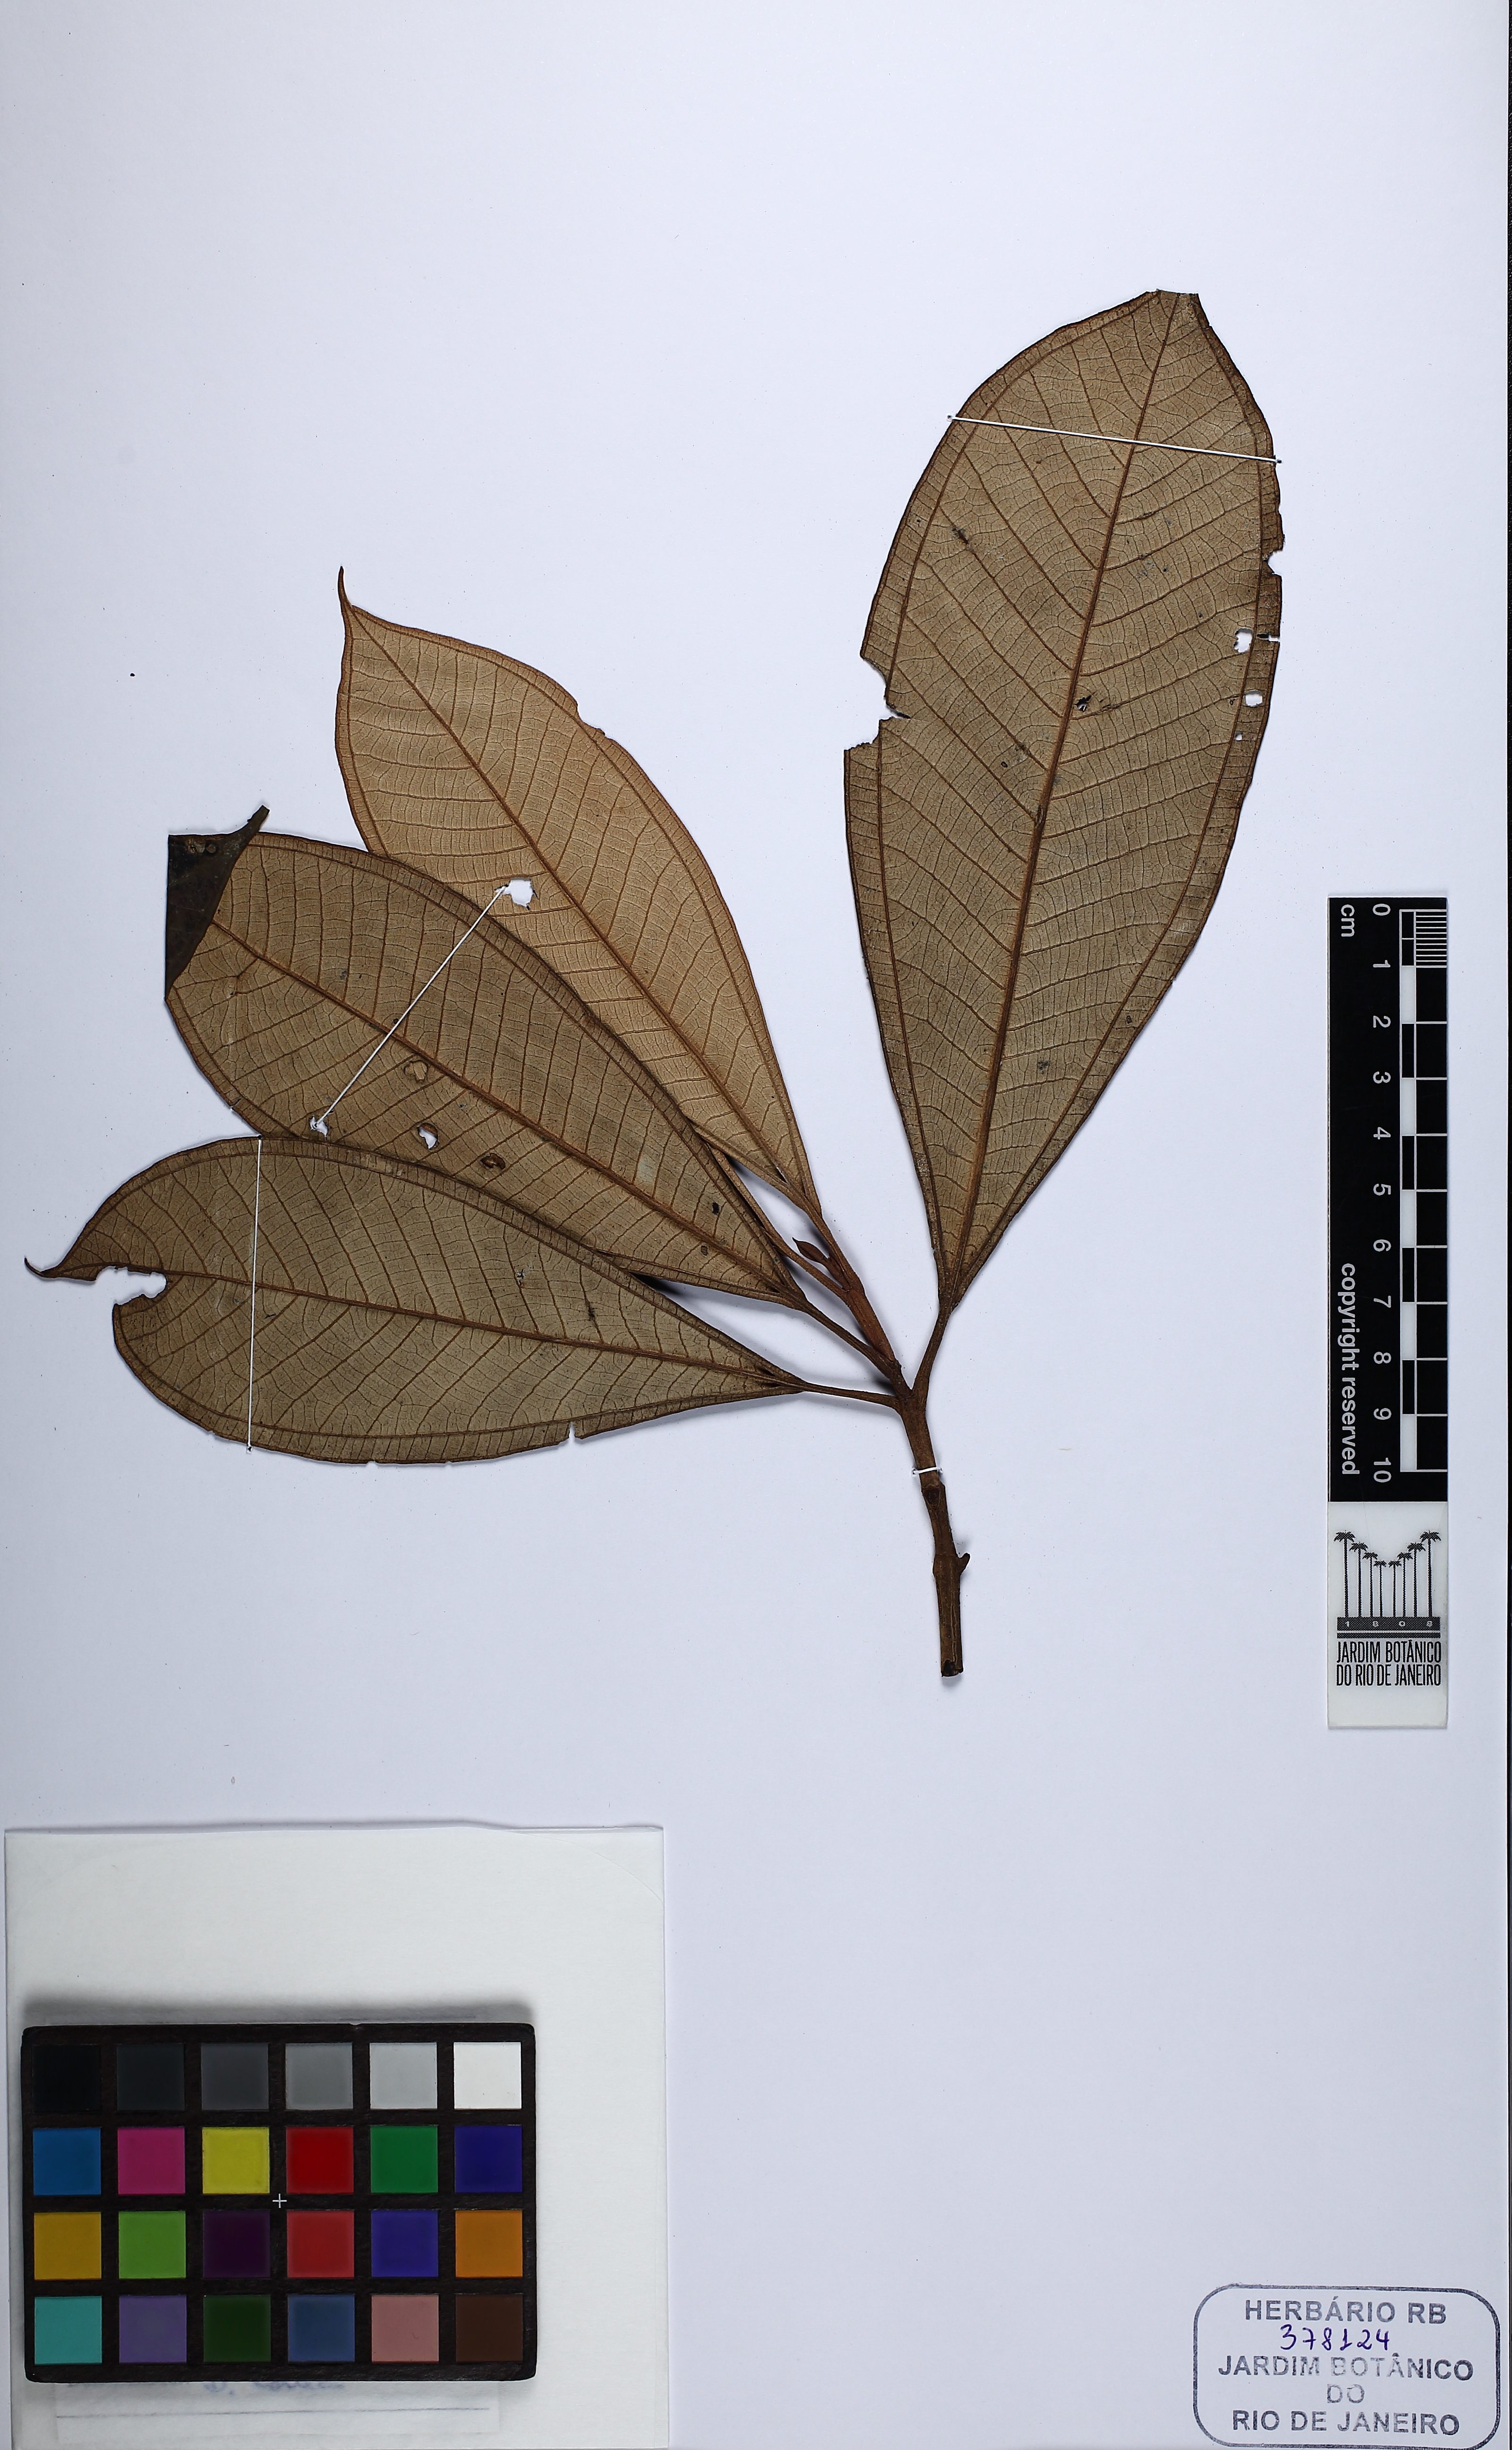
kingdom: Plantae
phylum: Tracheophyta
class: Magnoliopsida
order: Myrtales
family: Melastomataceae
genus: Miconia
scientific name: Miconia punctata
